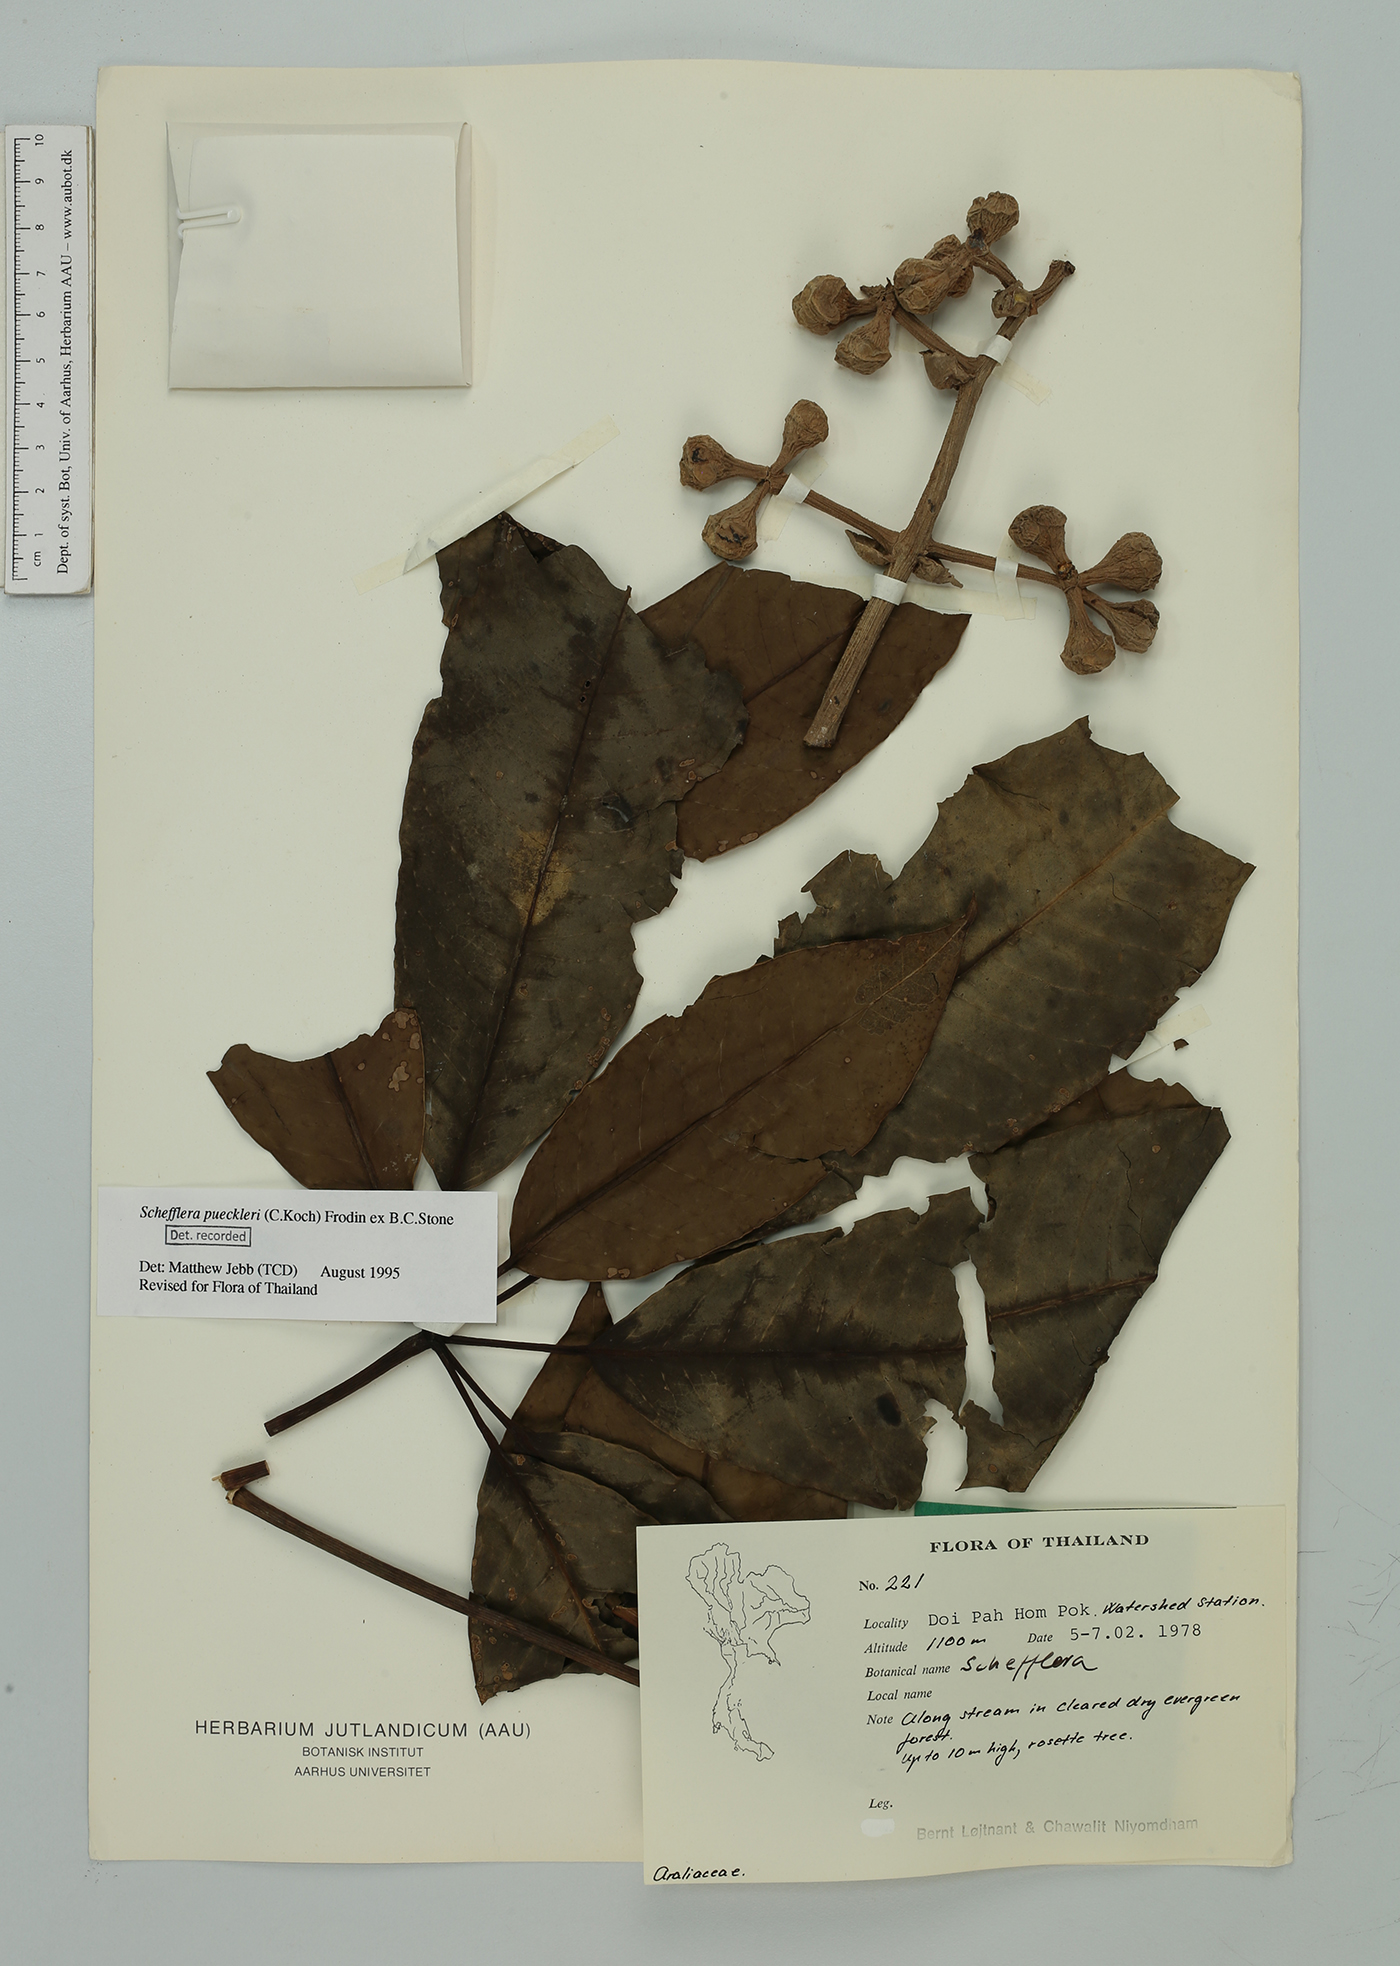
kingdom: Plantae
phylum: Tracheophyta
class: Magnoliopsida
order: Apiales
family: Araliaceae
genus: Heptapleurum
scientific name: Heptapleurum calyptratum
